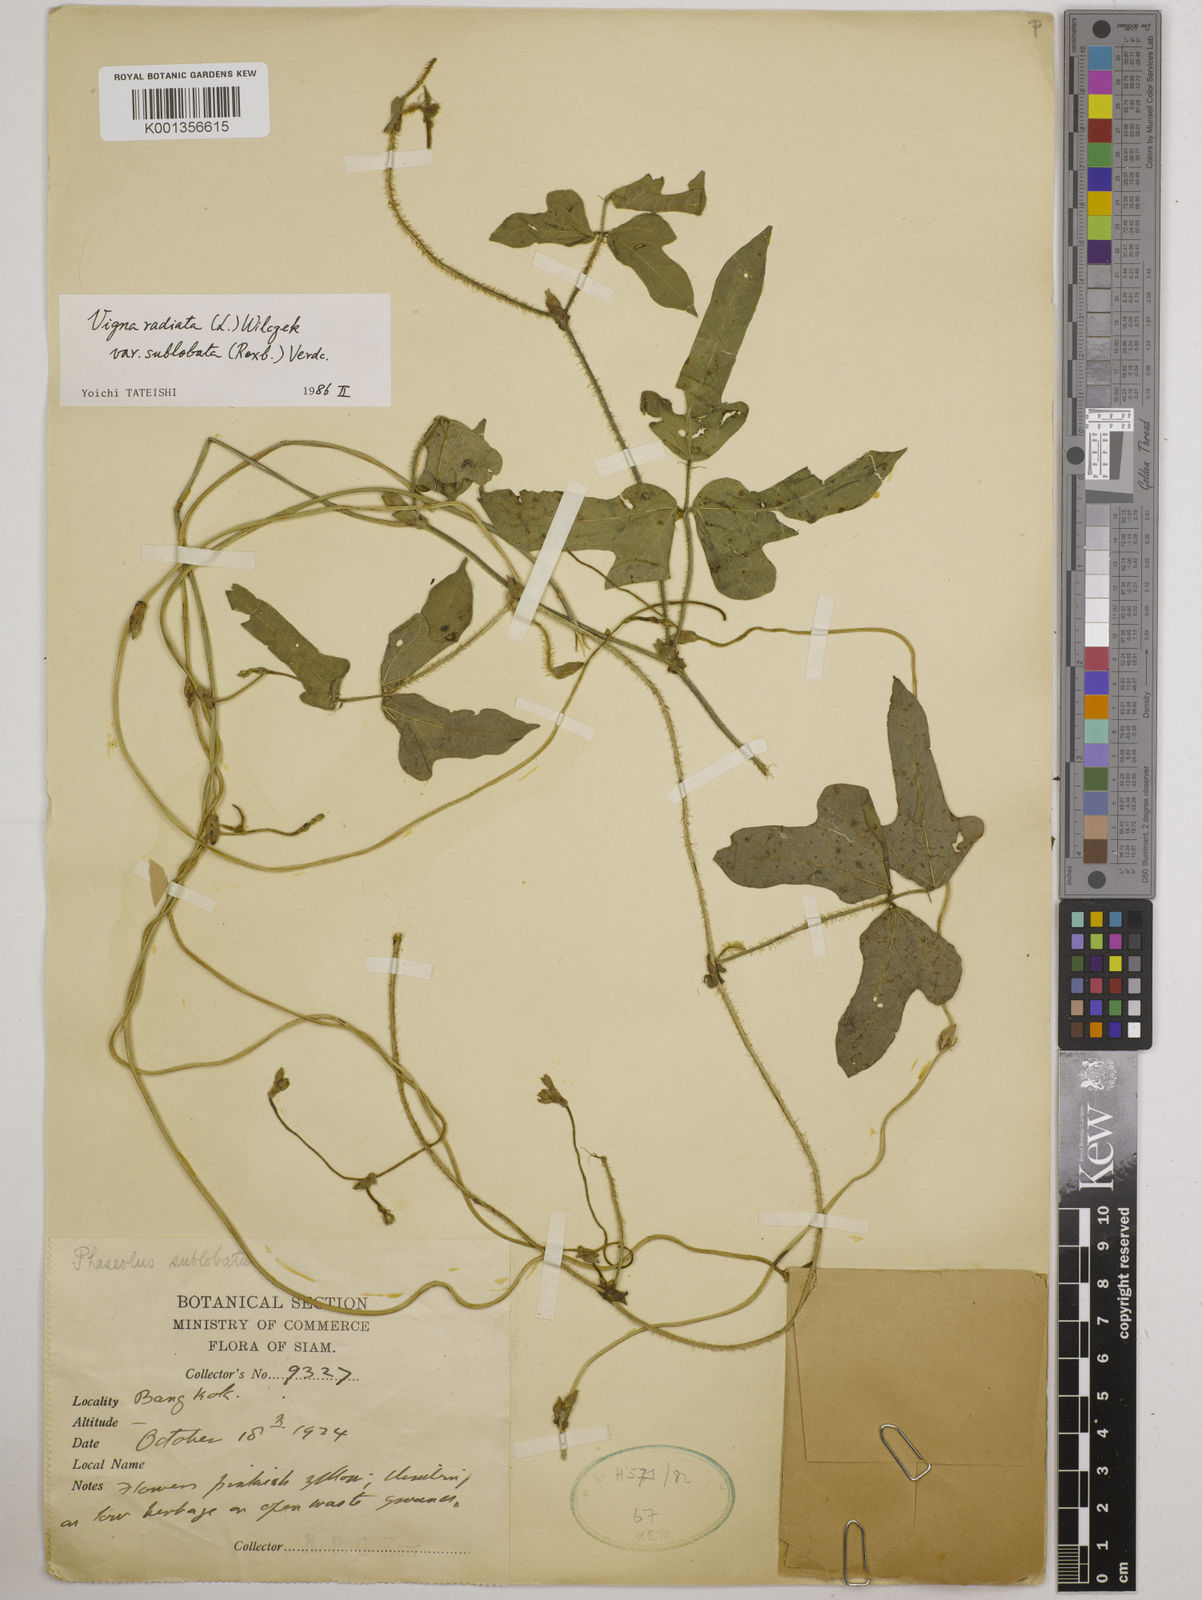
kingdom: Plantae
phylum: Tracheophyta
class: Magnoliopsida
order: Fabales
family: Fabaceae
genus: Vigna
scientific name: Vigna radiata
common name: Mung-bean
